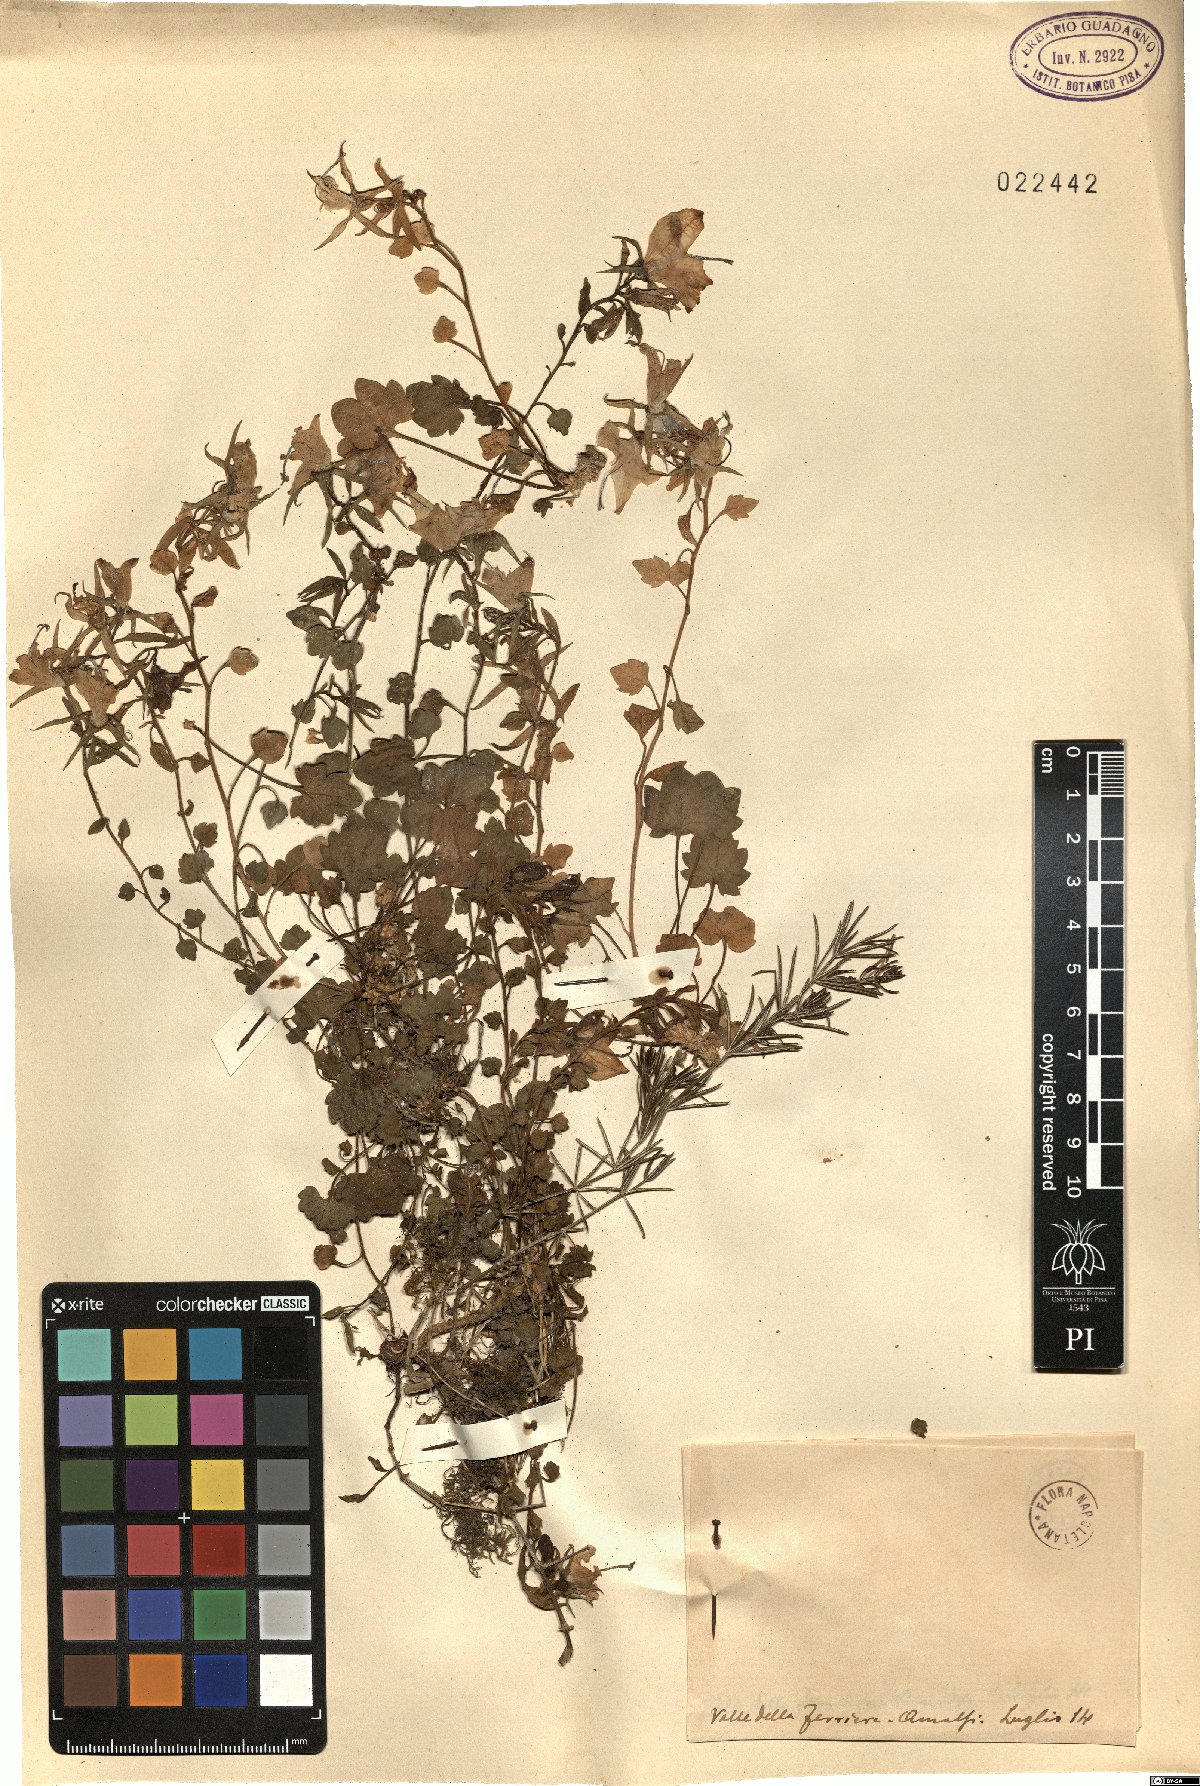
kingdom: Plantae
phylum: Tracheophyta
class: Magnoliopsida
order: Asterales
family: Campanulaceae
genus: Campanula
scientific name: Campanula
